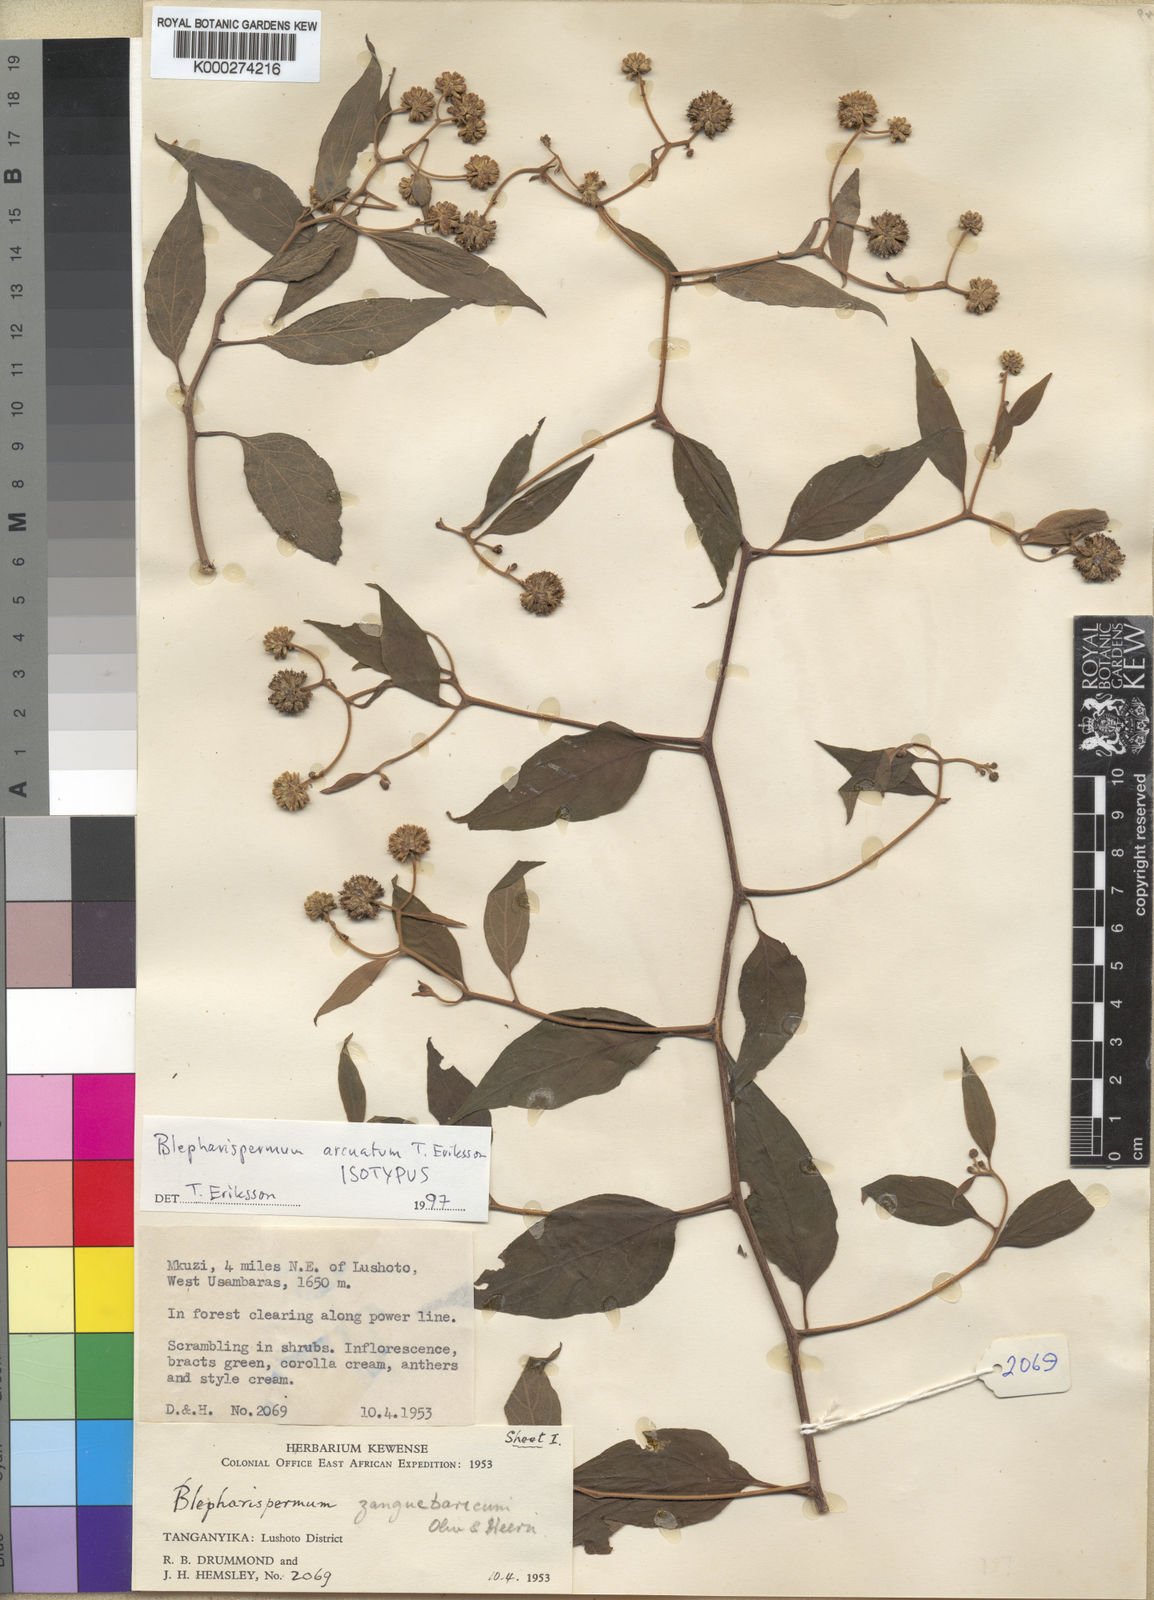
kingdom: Plantae
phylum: Tracheophyta
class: Magnoliopsida
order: Asterales
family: Asteraceae
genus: Blepharispermum
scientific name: Blepharispermum arcuatum
